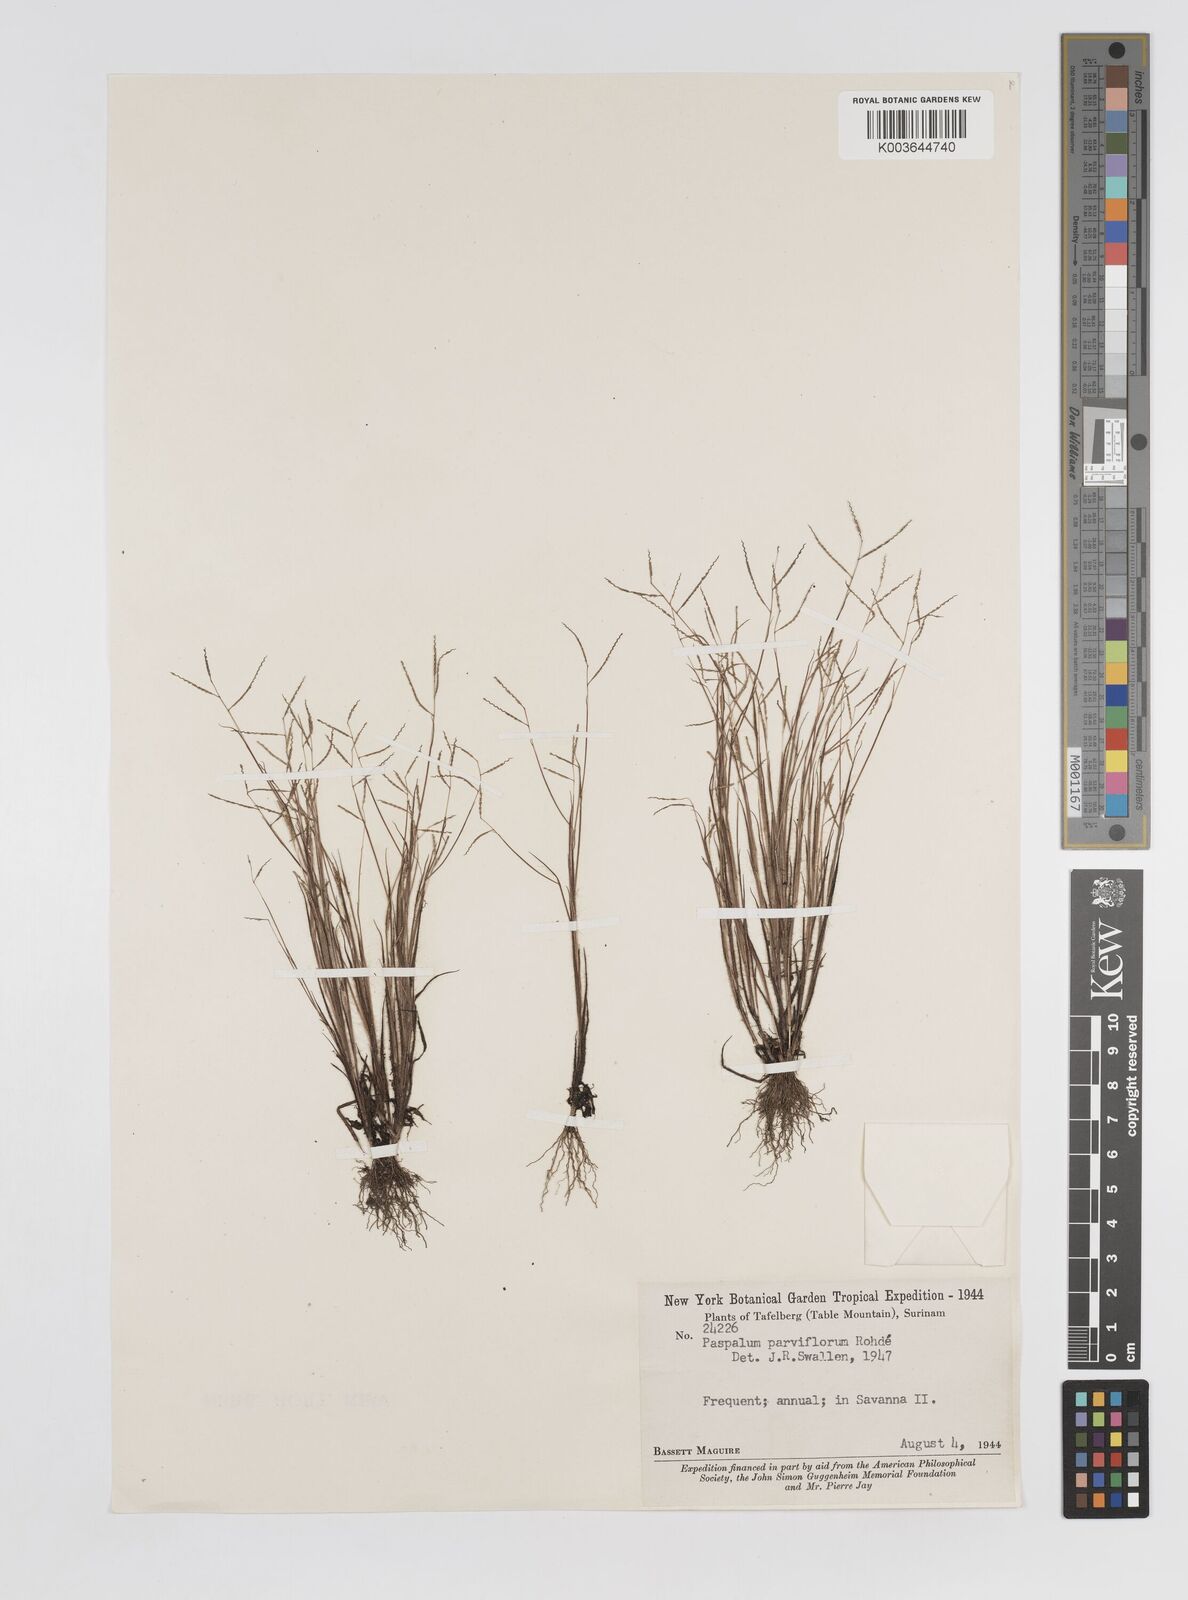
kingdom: Plantae
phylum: Tracheophyta
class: Liliopsida
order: Poales
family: Poaceae
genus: Paspalum
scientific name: Paspalum parviflorum
